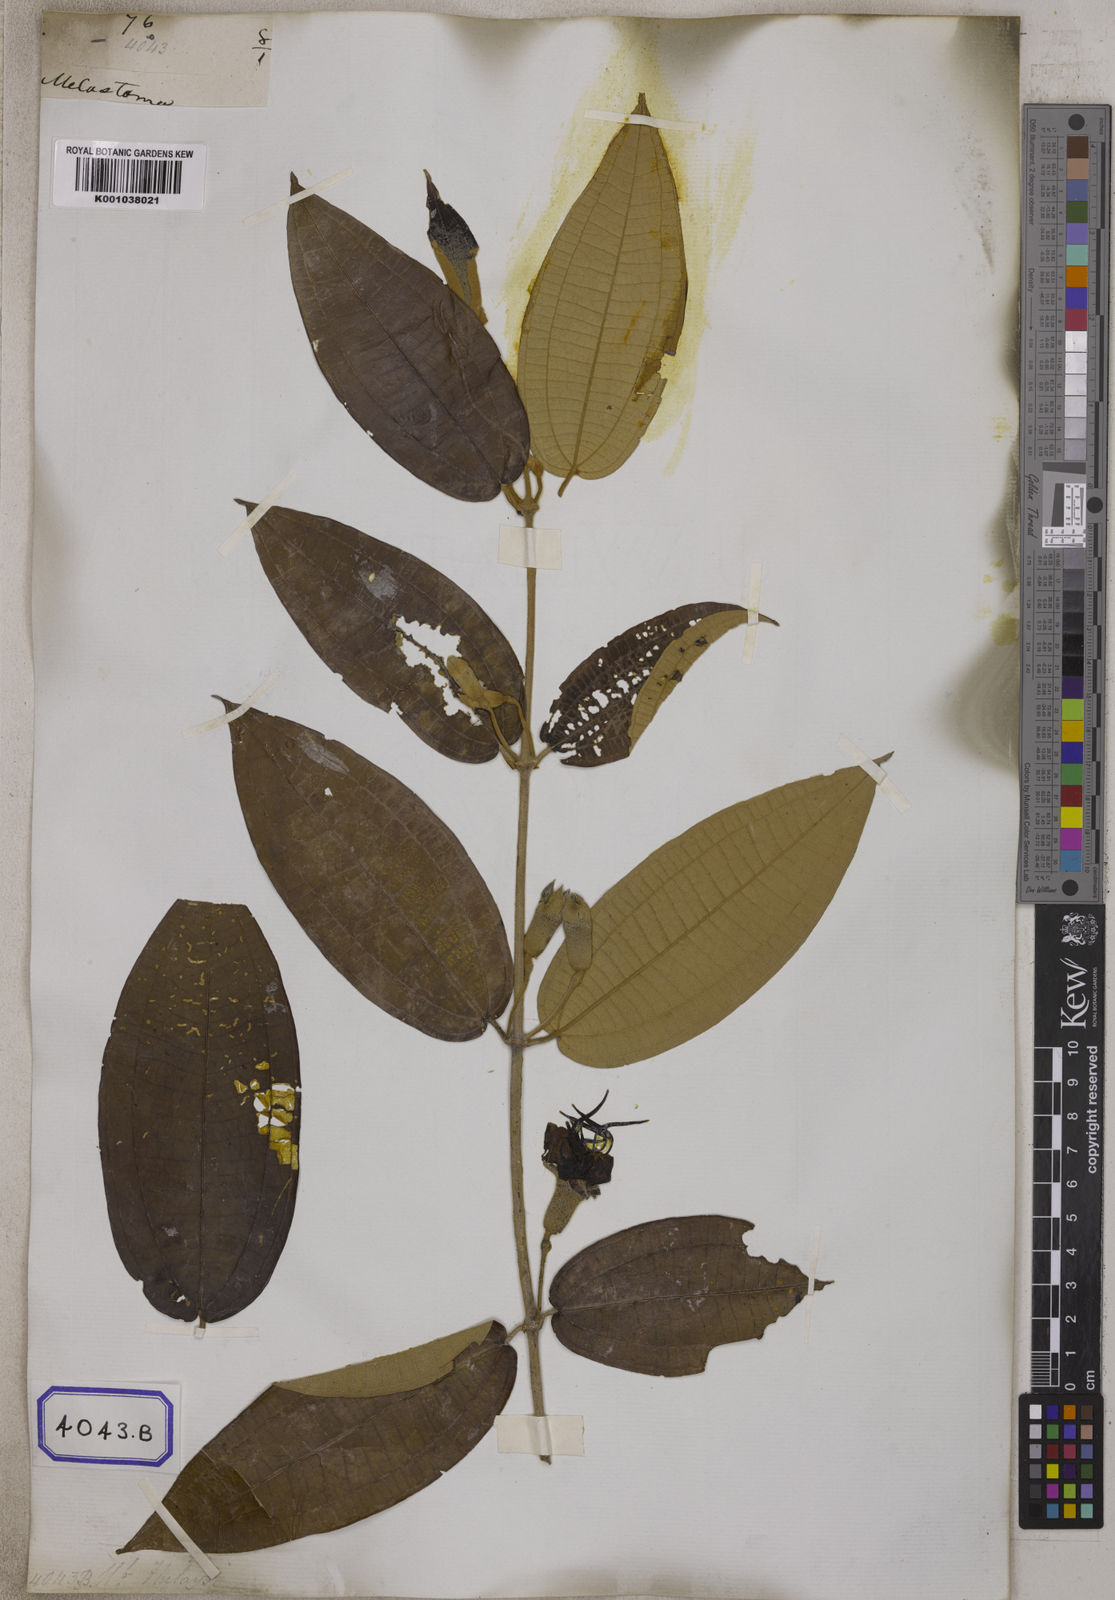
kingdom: Plantae
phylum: Tracheophyta
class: Magnoliopsida
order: Myrtales
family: Melastomataceae
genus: Macrolenes
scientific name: Macrolenes nemorosa
